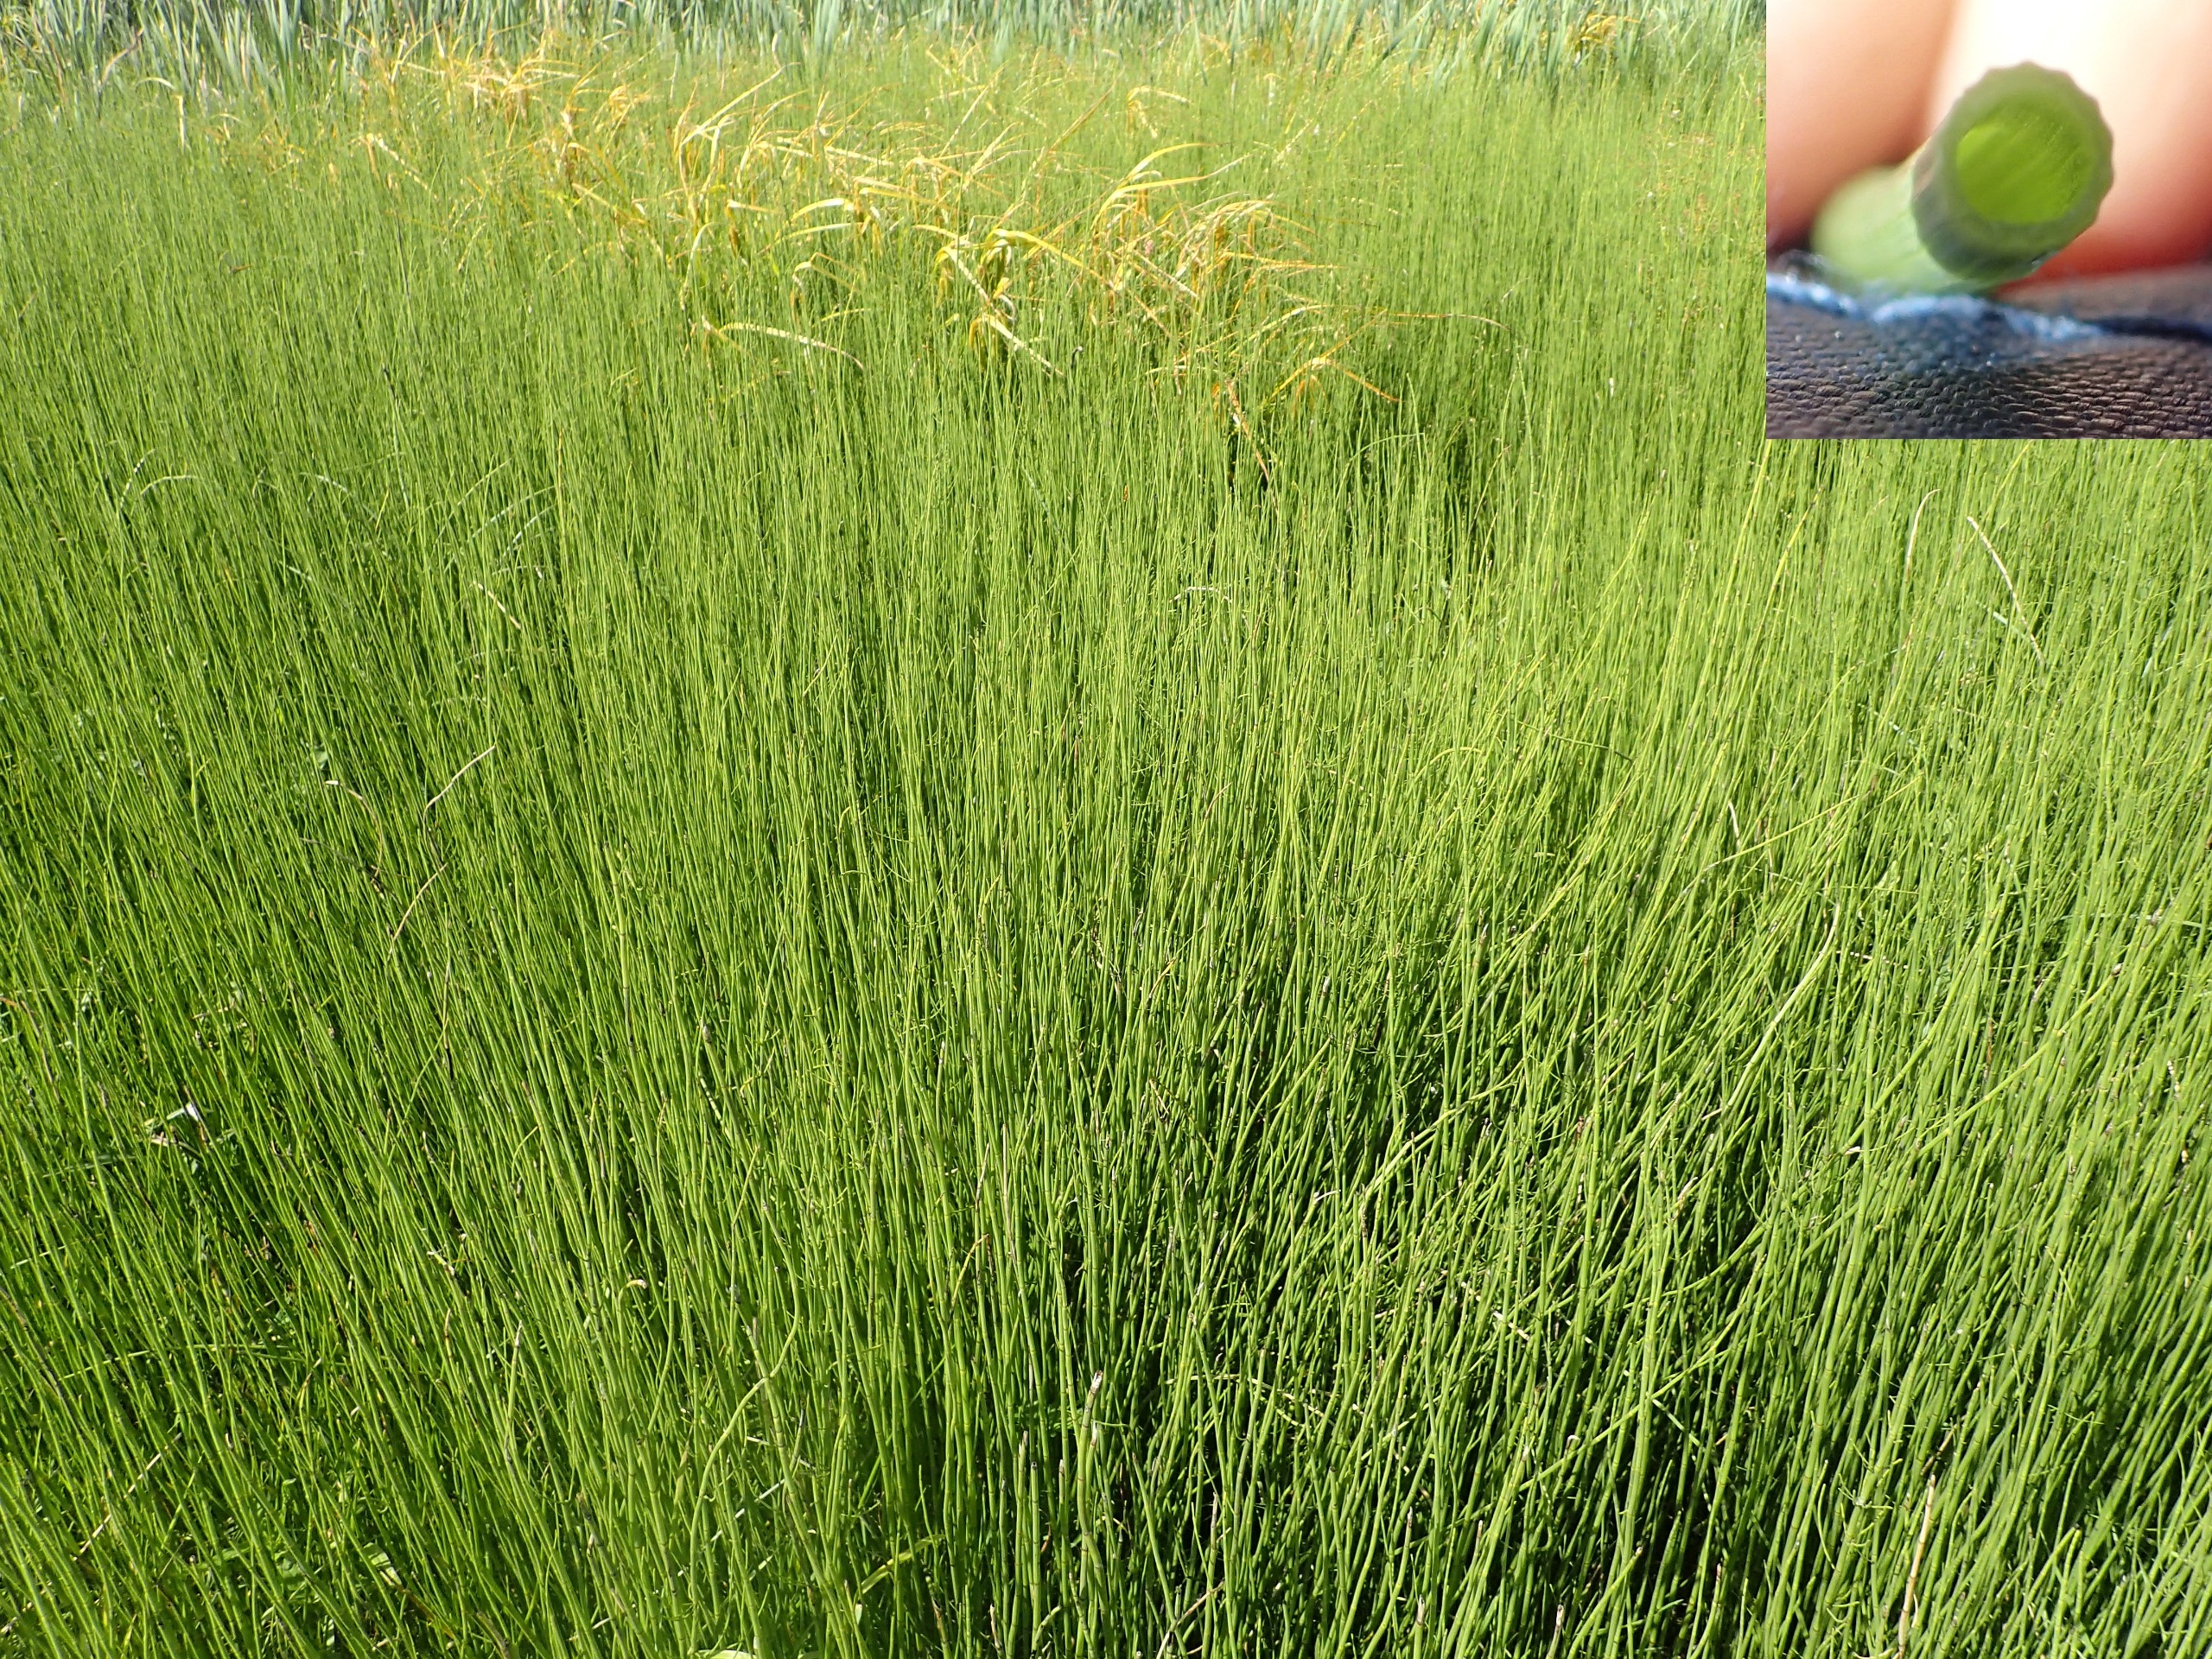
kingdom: Plantae
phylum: Tracheophyta
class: Polypodiopsida
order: Equisetales
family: Equisetaceae
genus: Equisetum
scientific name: Equisetum fluviatile
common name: Dynd-padderok
